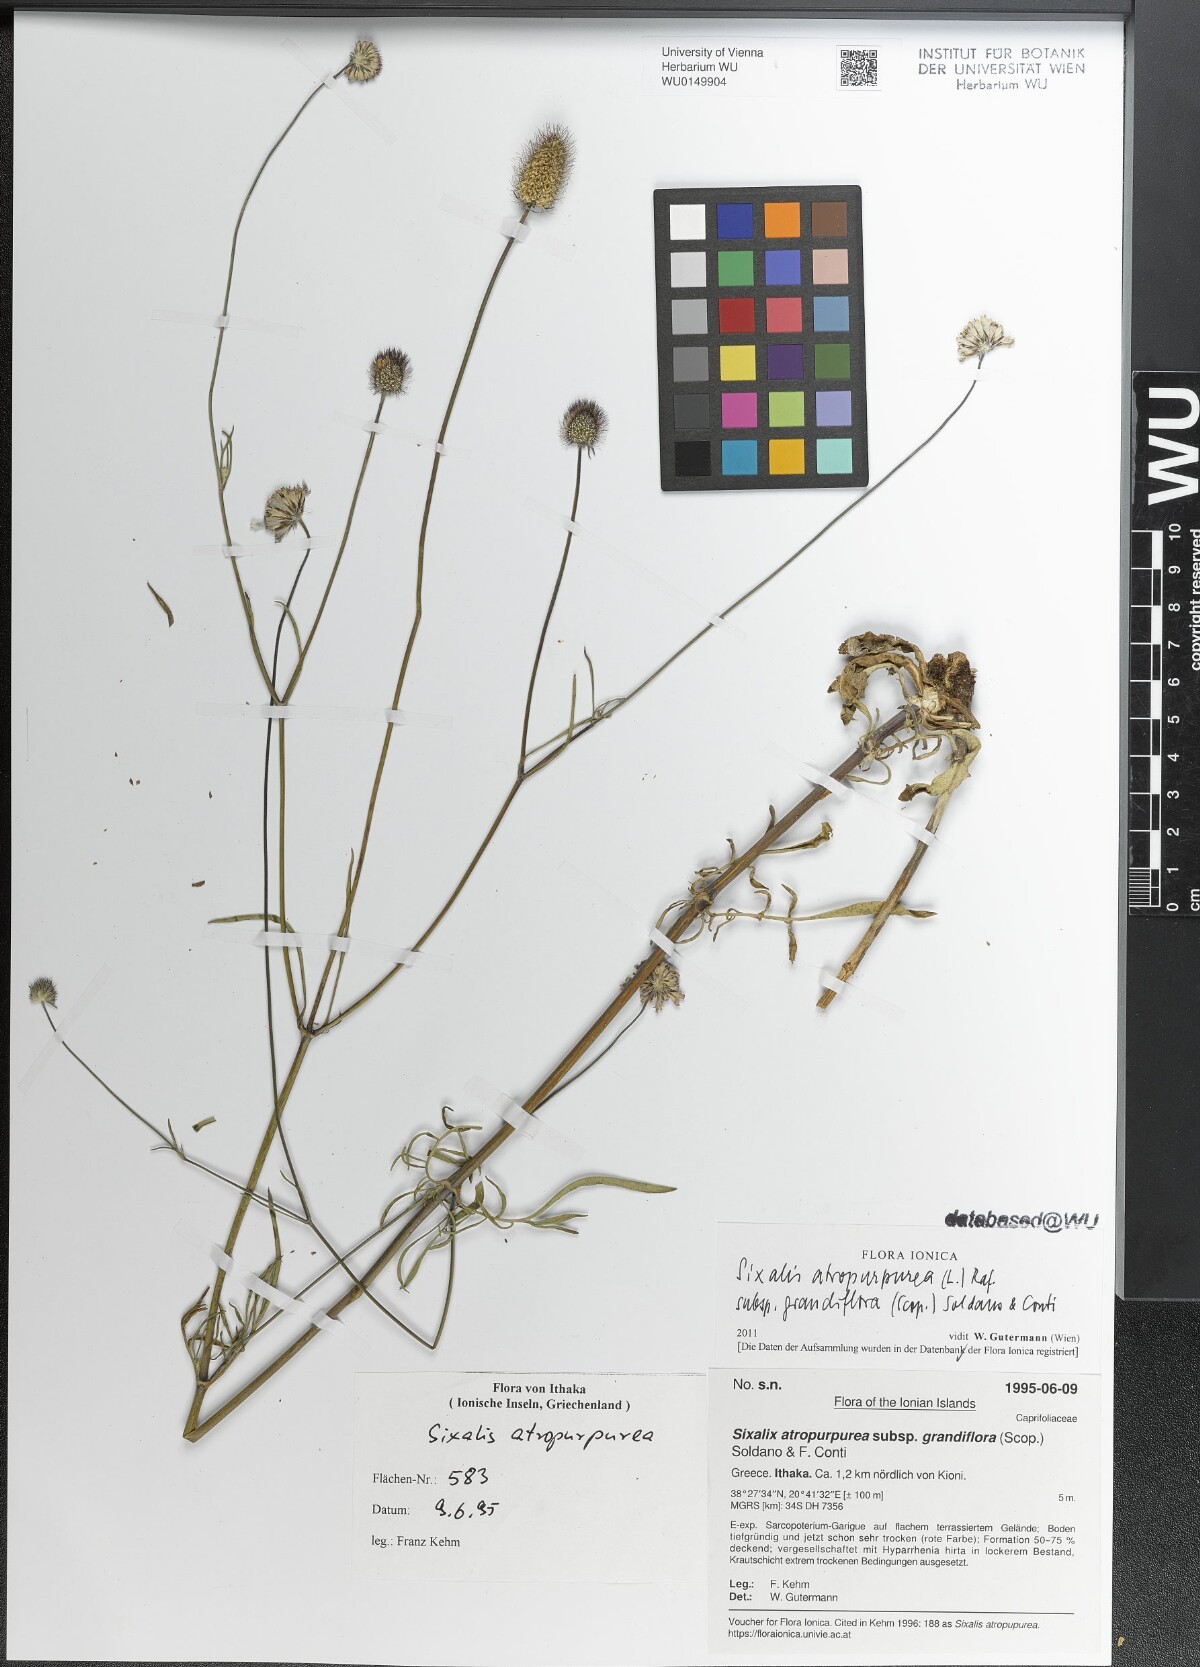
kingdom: Plantae
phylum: Tracheophyta
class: Magnoliopsida
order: Dipsacales
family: Caprifoliaceae
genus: Sixalix
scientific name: Sixalix atropurpurea
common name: Sweet scabious
